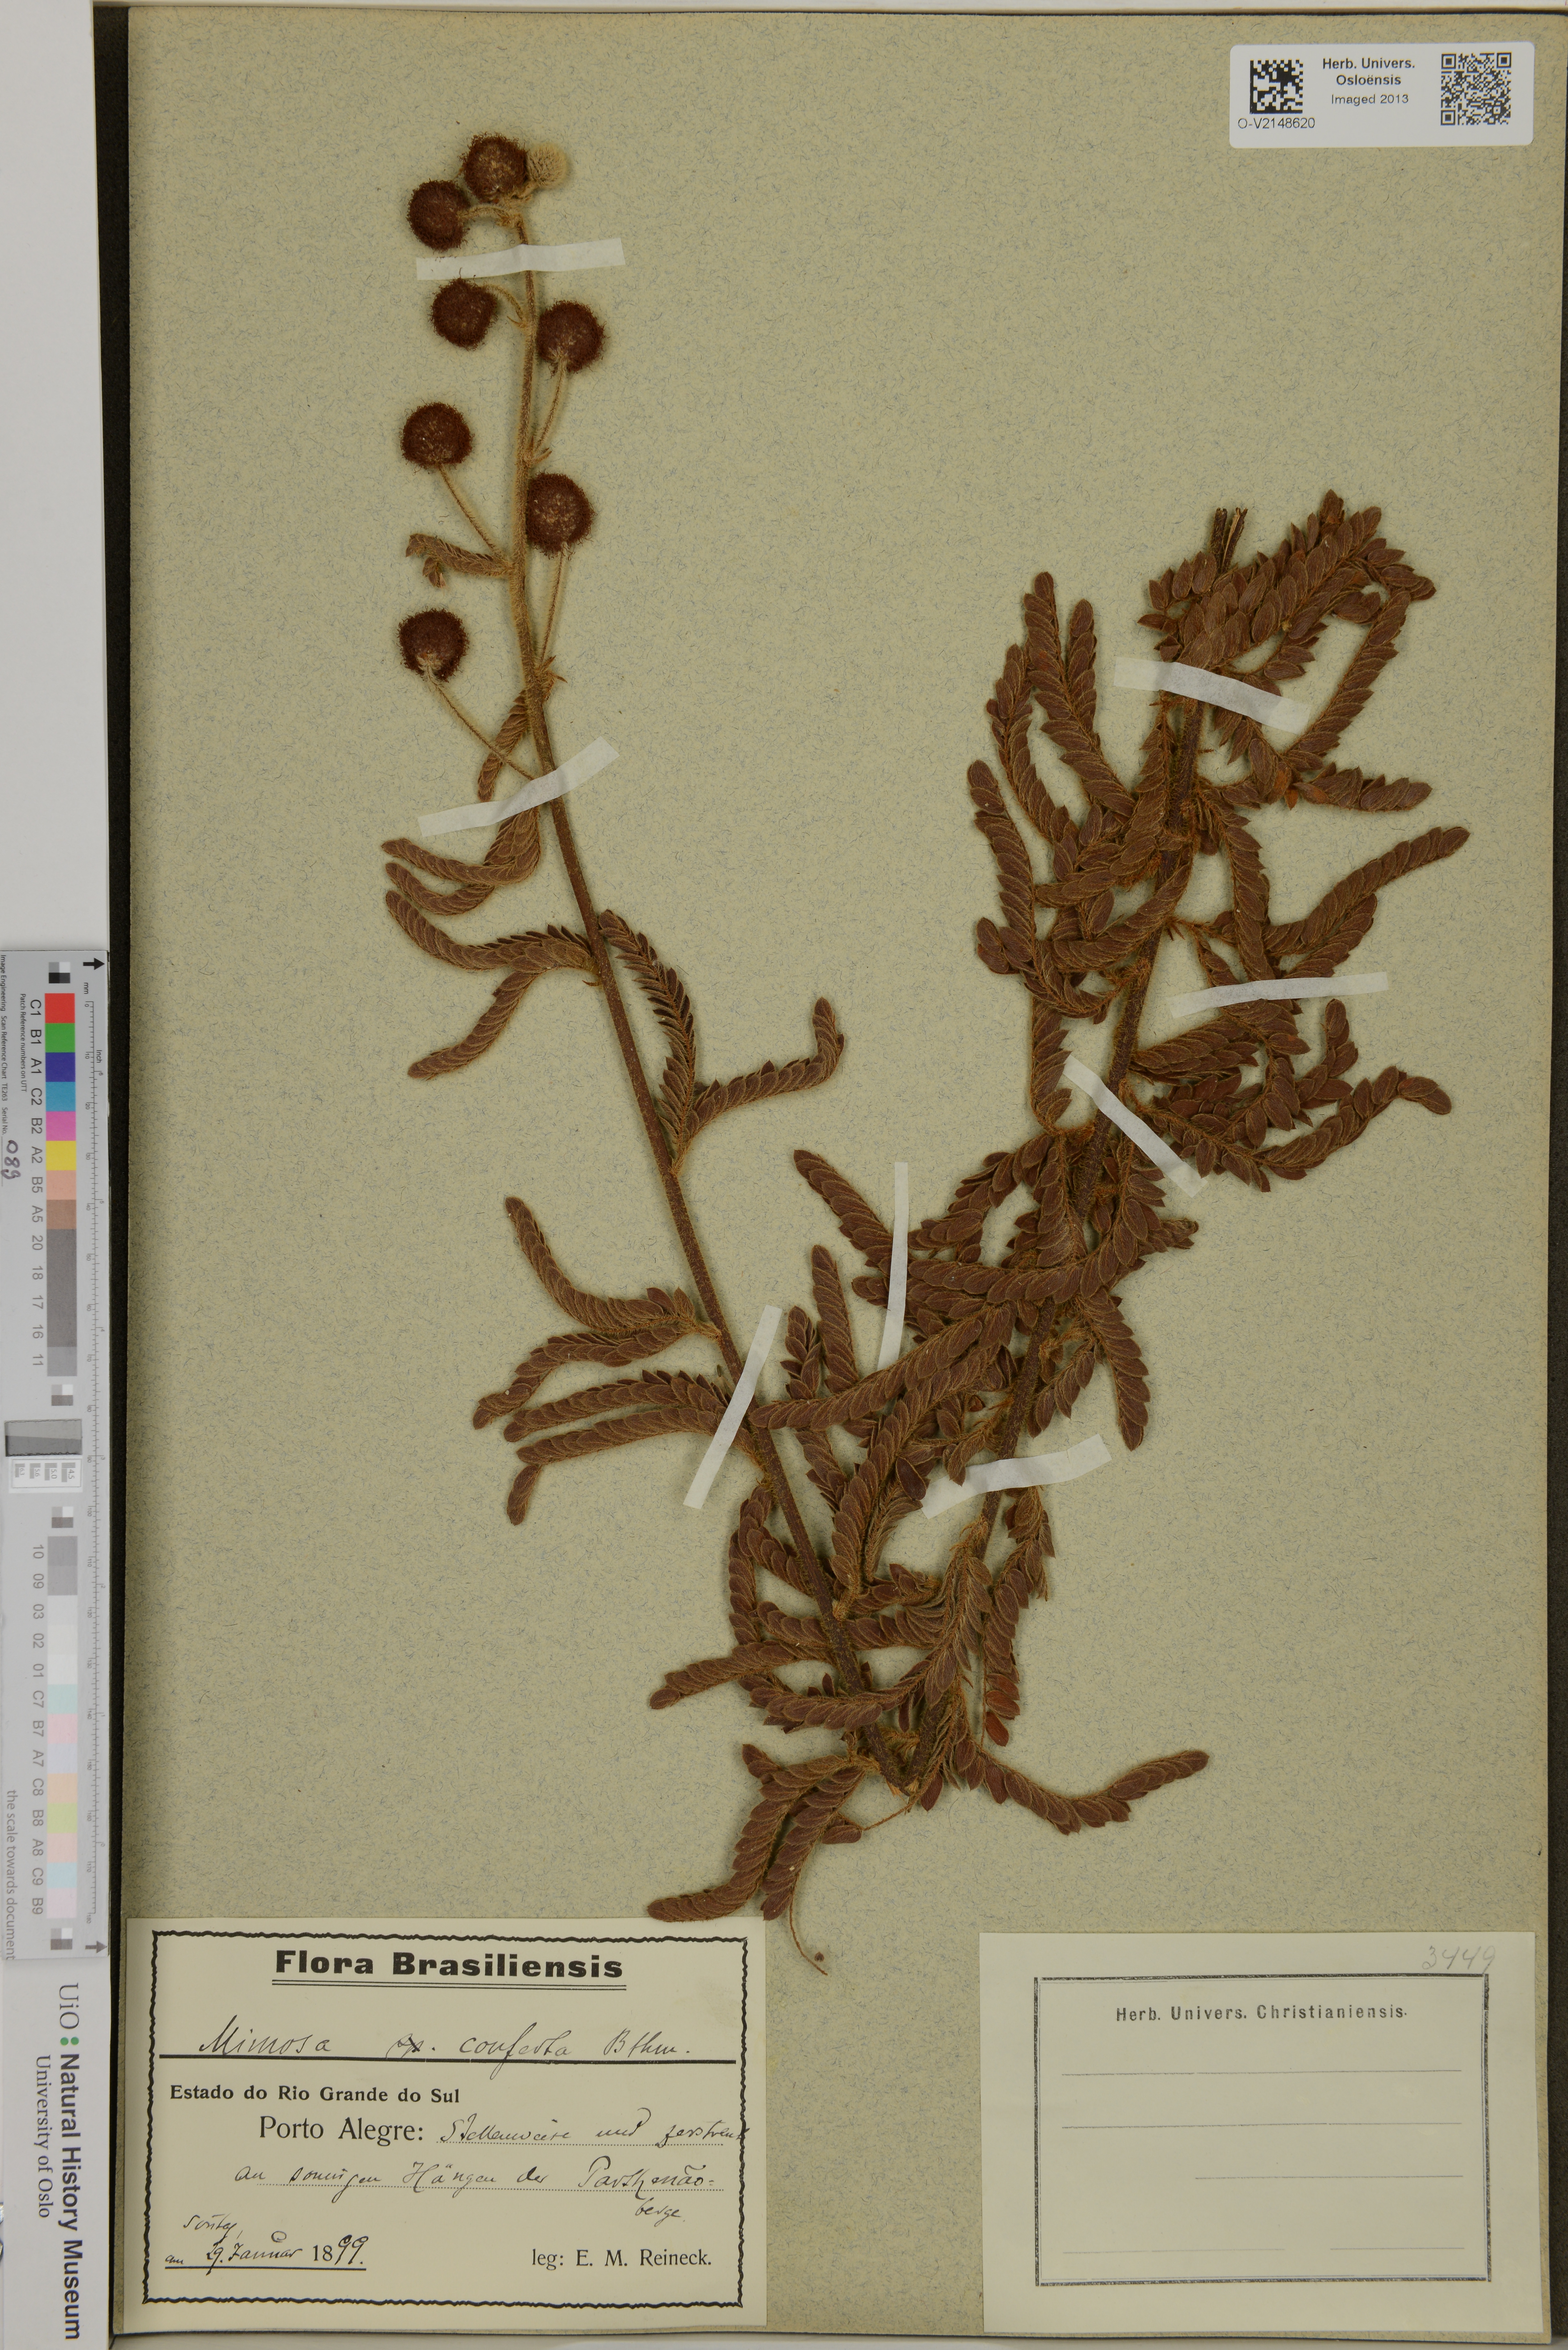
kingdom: Plantae
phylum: Tracheophyta
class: Magnoliopsida
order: Fabales
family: Fabaceae
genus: Mimosa
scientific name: Mimosa dolens
